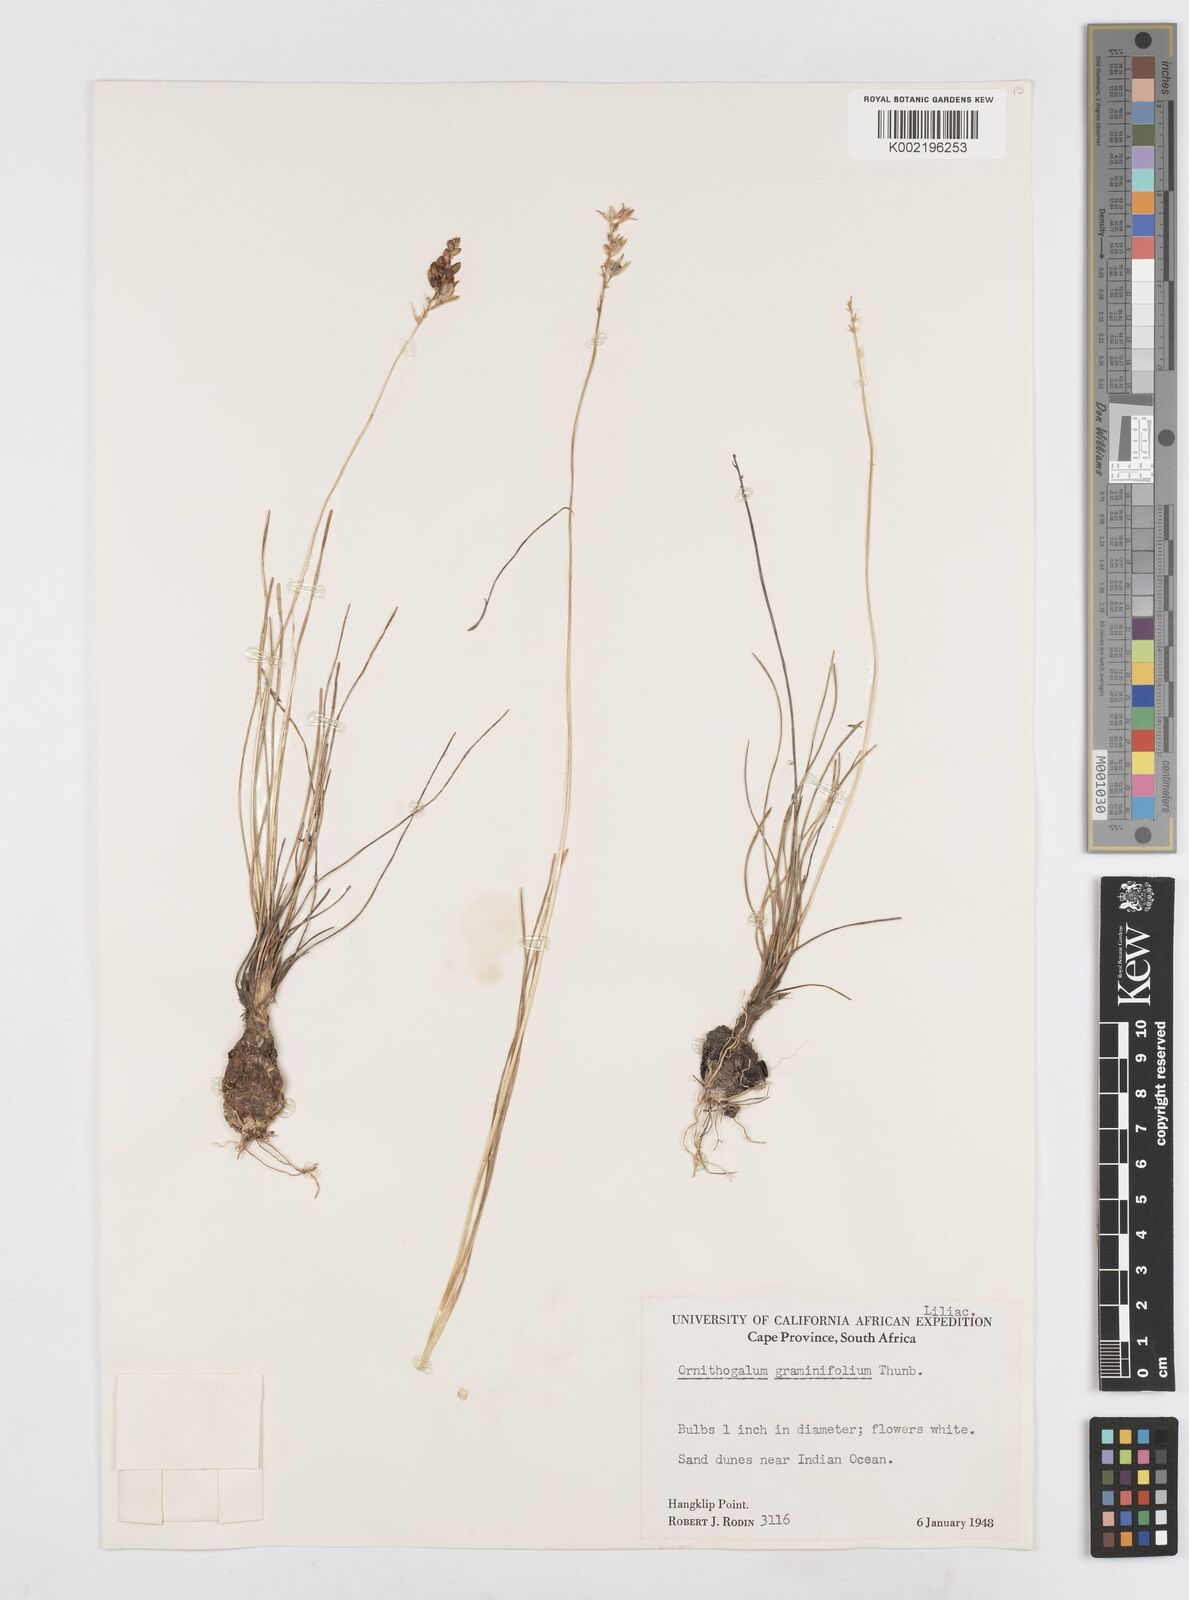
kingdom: Plantae
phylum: Tracheophyta
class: Liliopsida
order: Asparagales
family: Asparagaceae
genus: Ornithogalum
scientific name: Ornithogalum graminifolium
